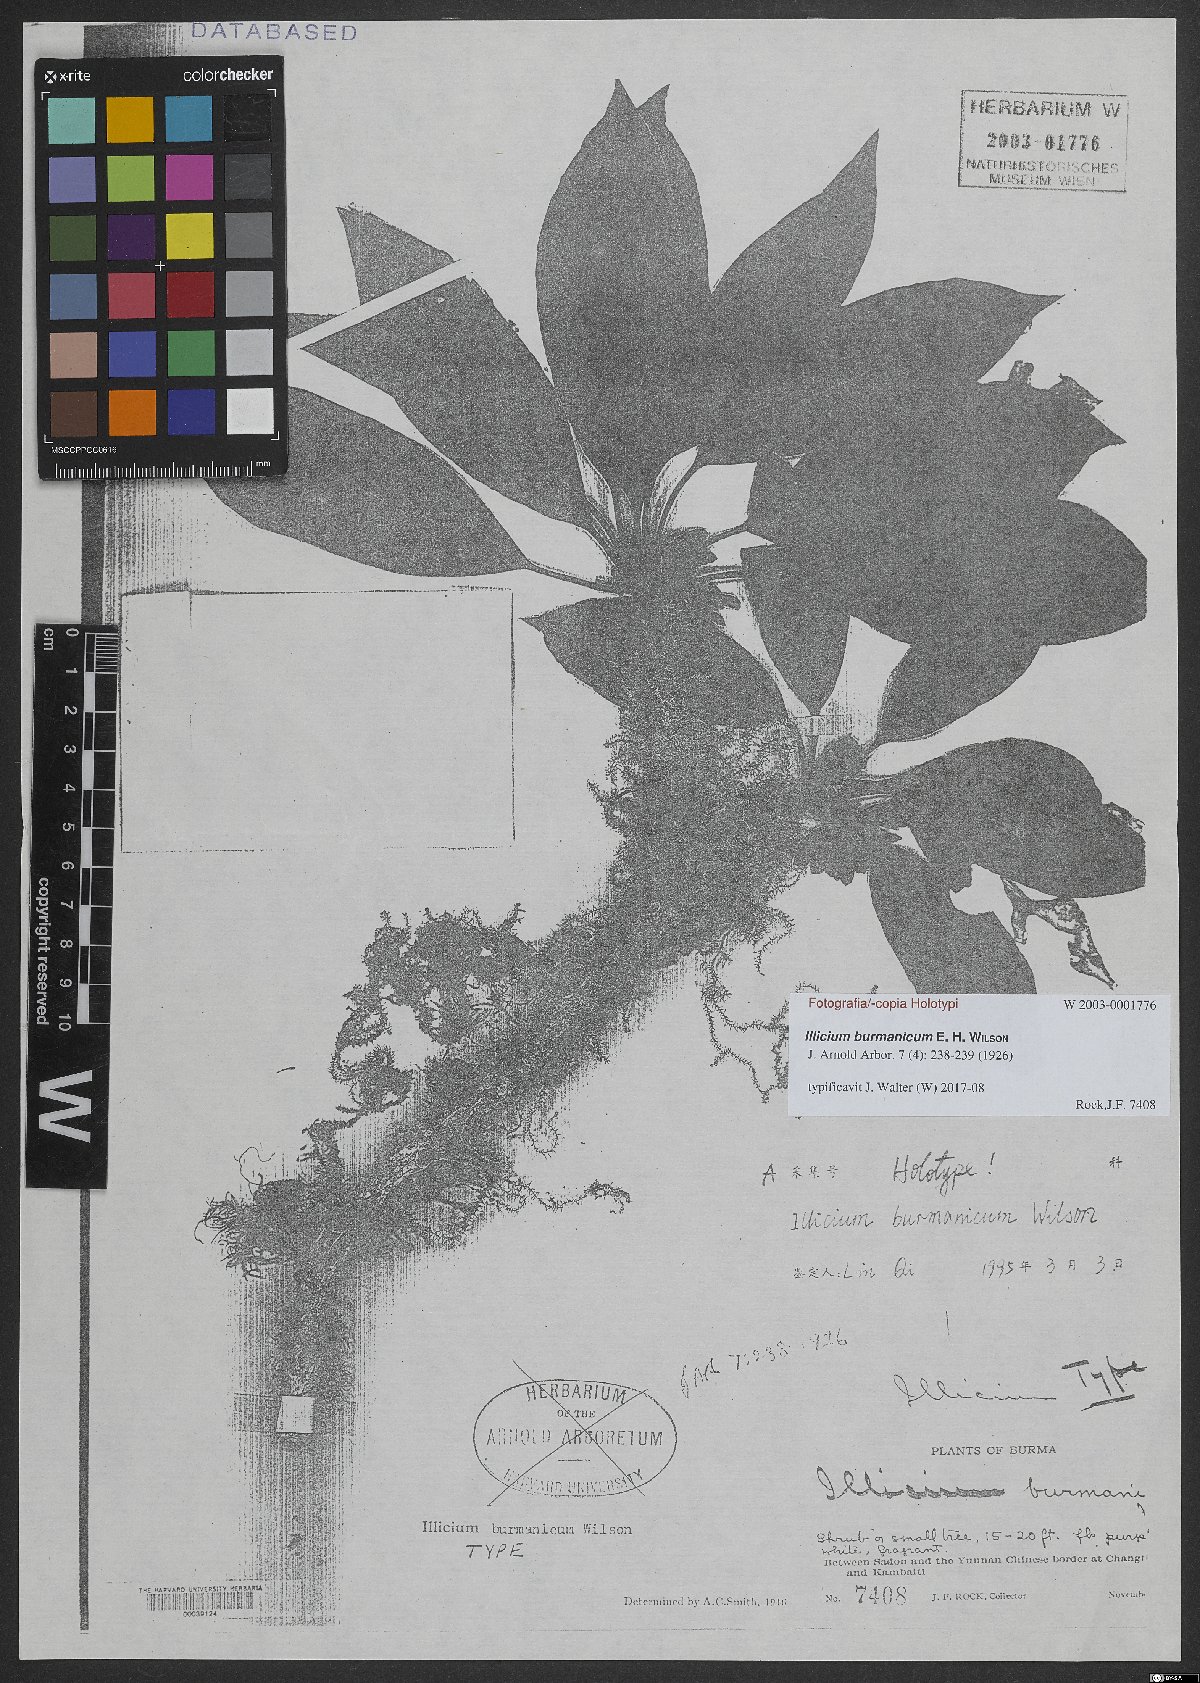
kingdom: Plantae
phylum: Tracheophyta
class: Magnoliopsida
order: Austrobaileyales
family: Schisandraceae
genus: Illicium
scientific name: Illicium burmanicum
